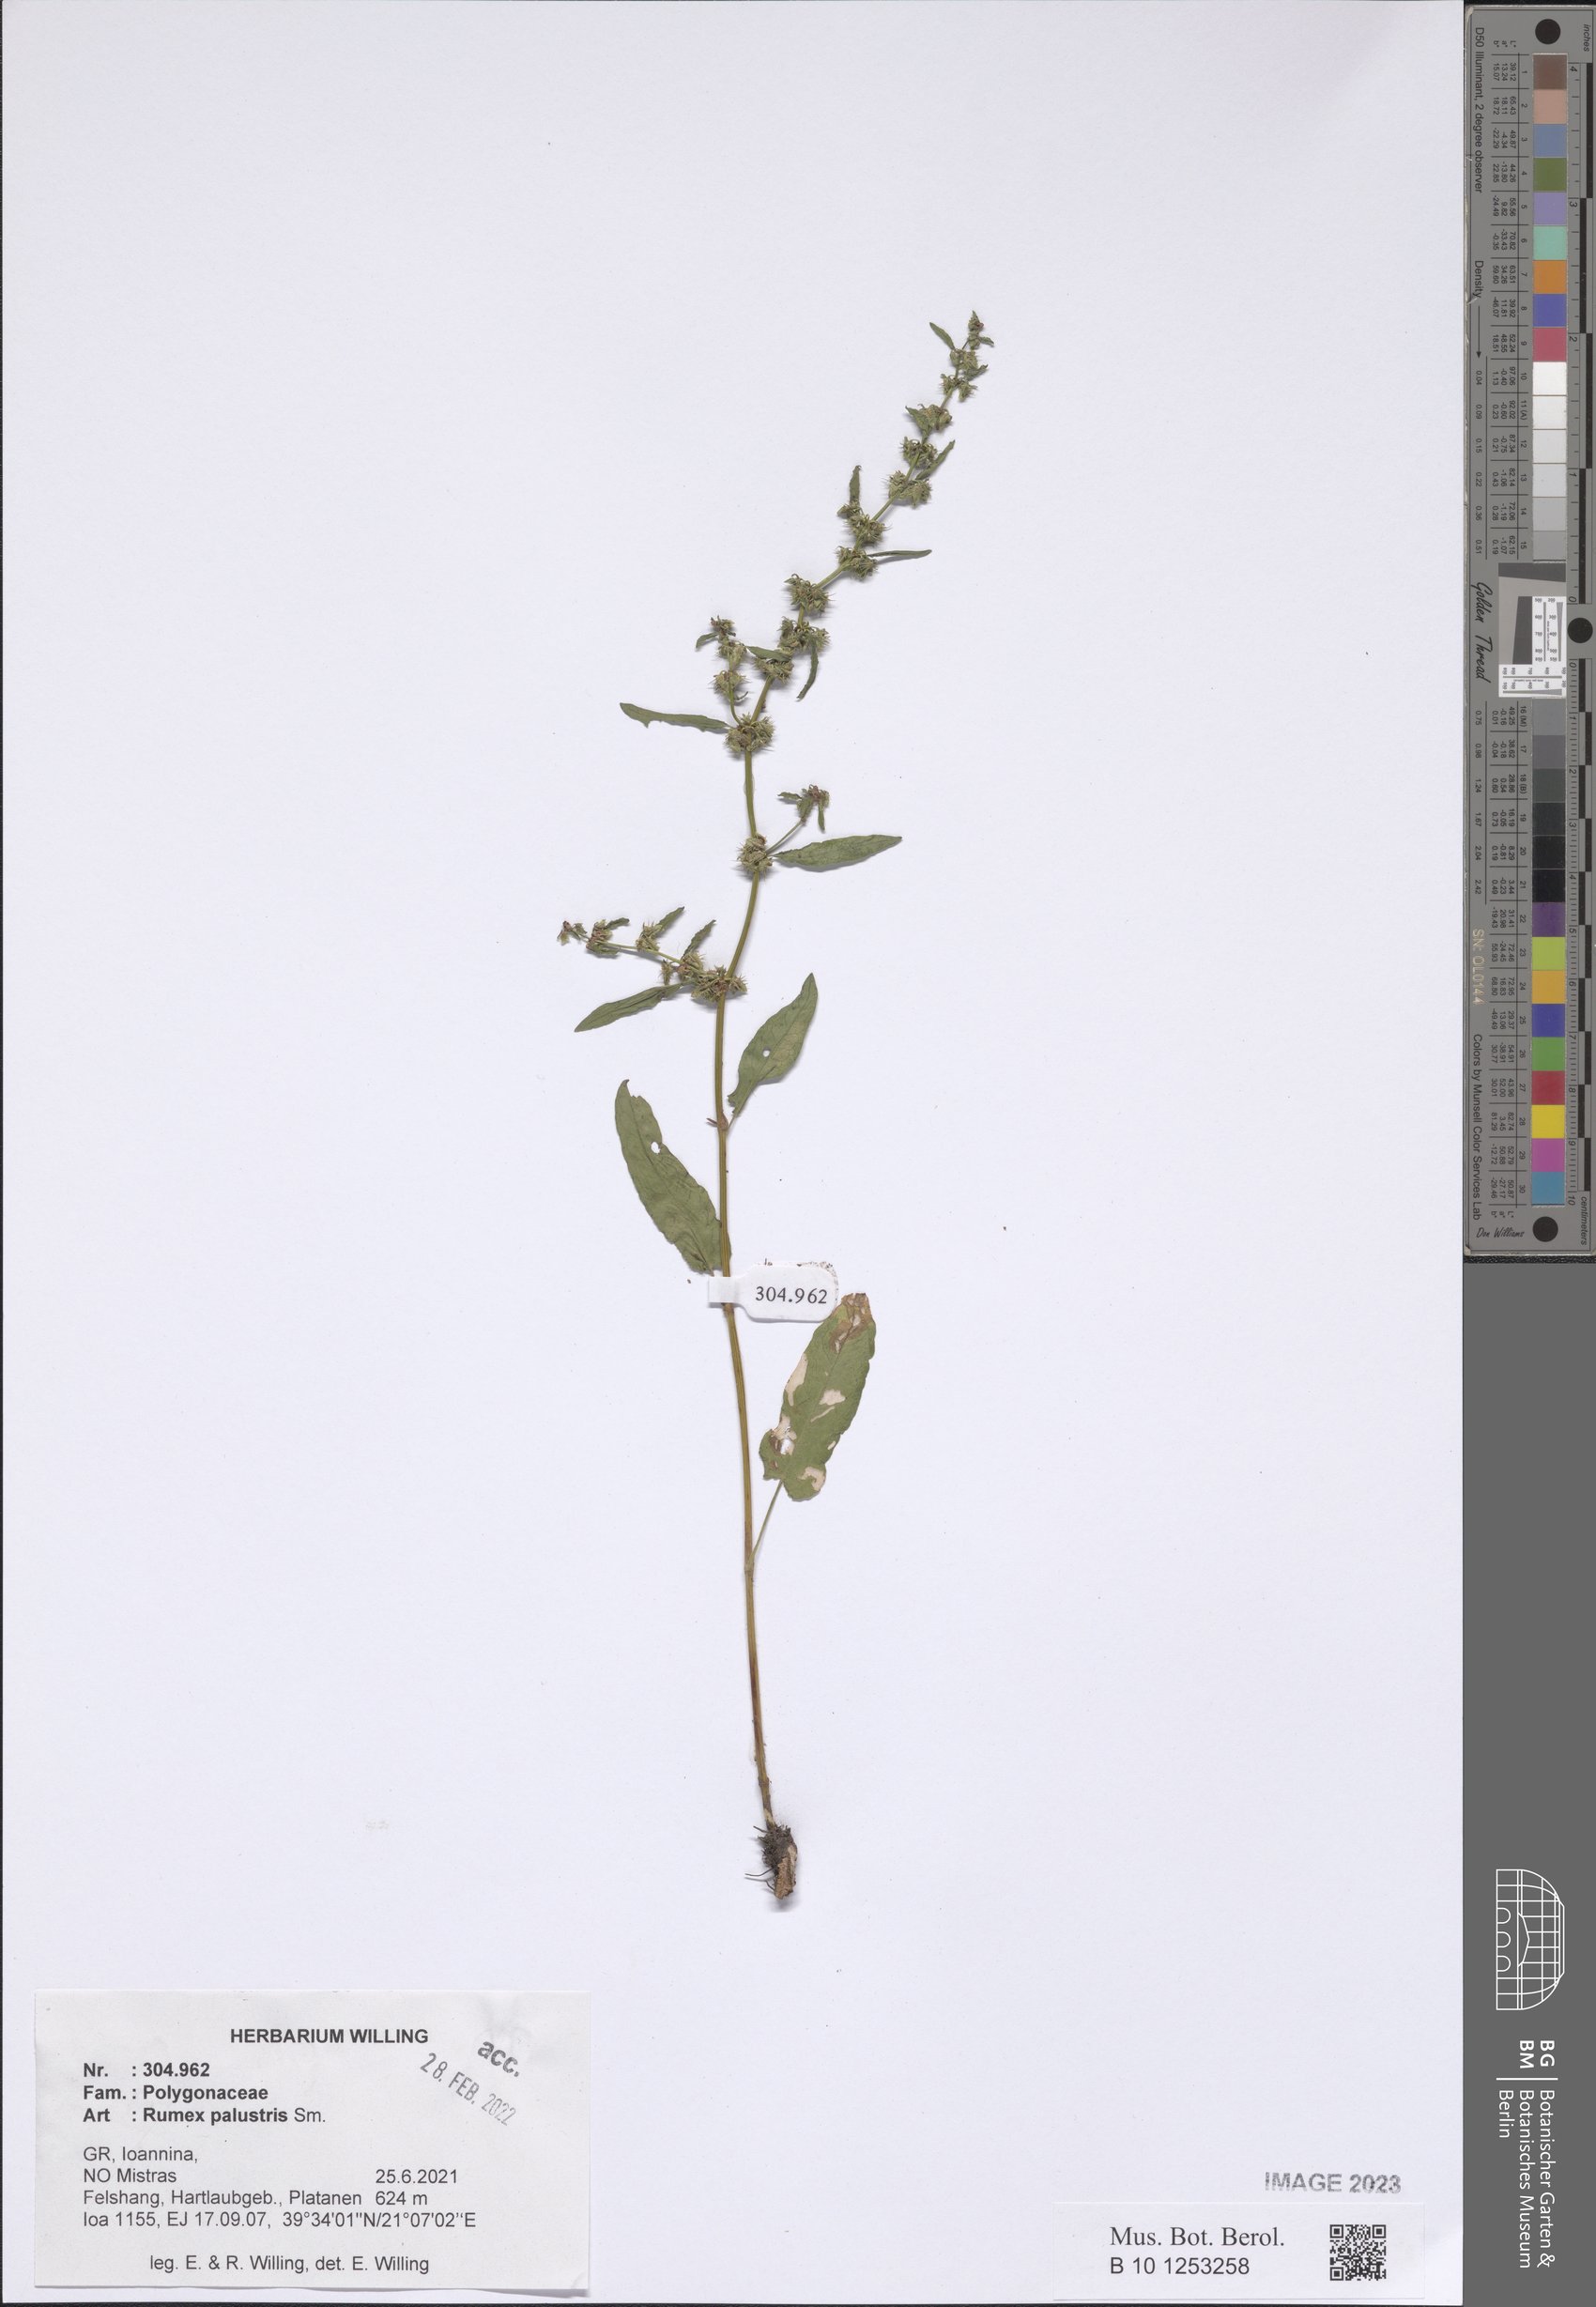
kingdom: Plantae
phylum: Tracheophyta
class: Magnoliopsida
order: Caryophyllales
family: Polygonaceae
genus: Rumex
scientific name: Rumex palustris
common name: Marsh dock
